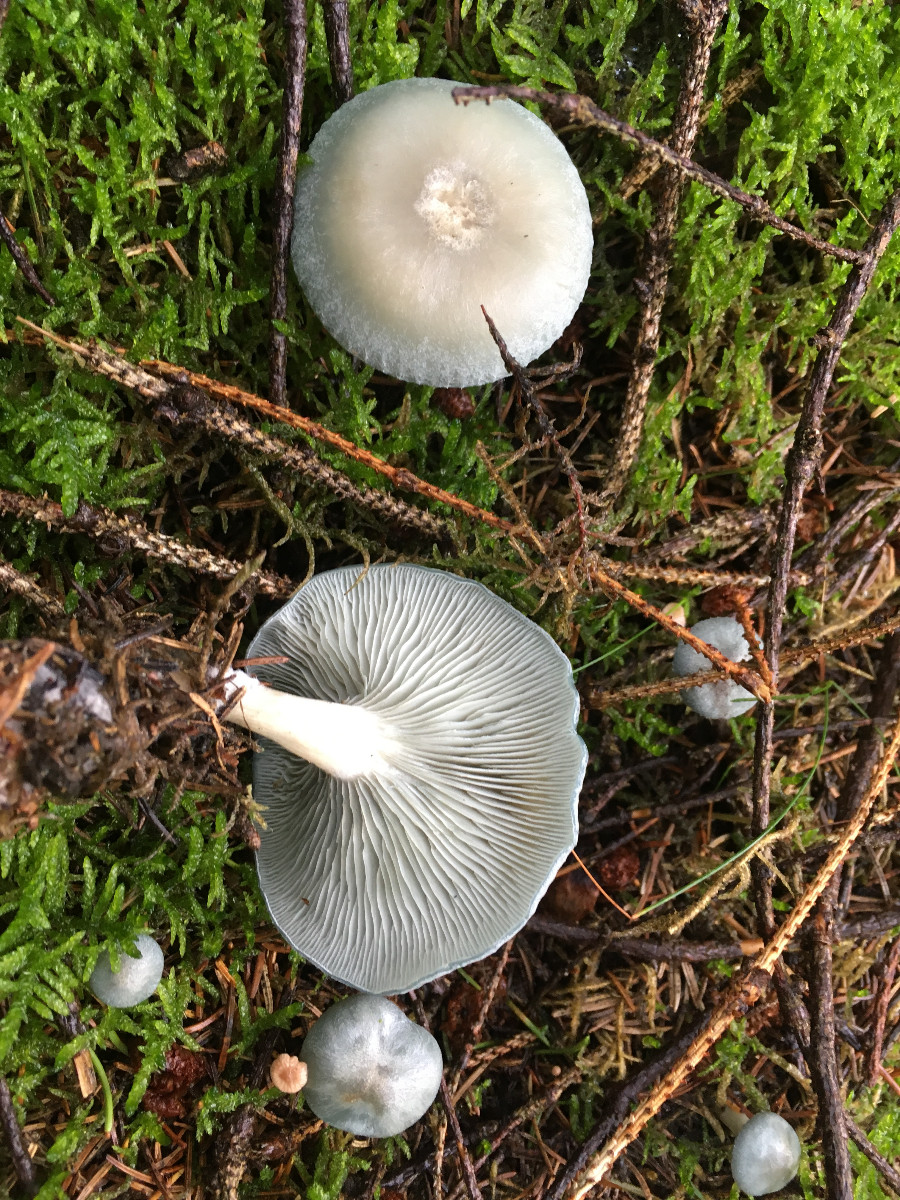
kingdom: Fungi
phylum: Basidiomycota
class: Agaricomycetes
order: Agaricales
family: Tricholomataceae
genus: Clitocybe
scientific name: Clitocybe odora
